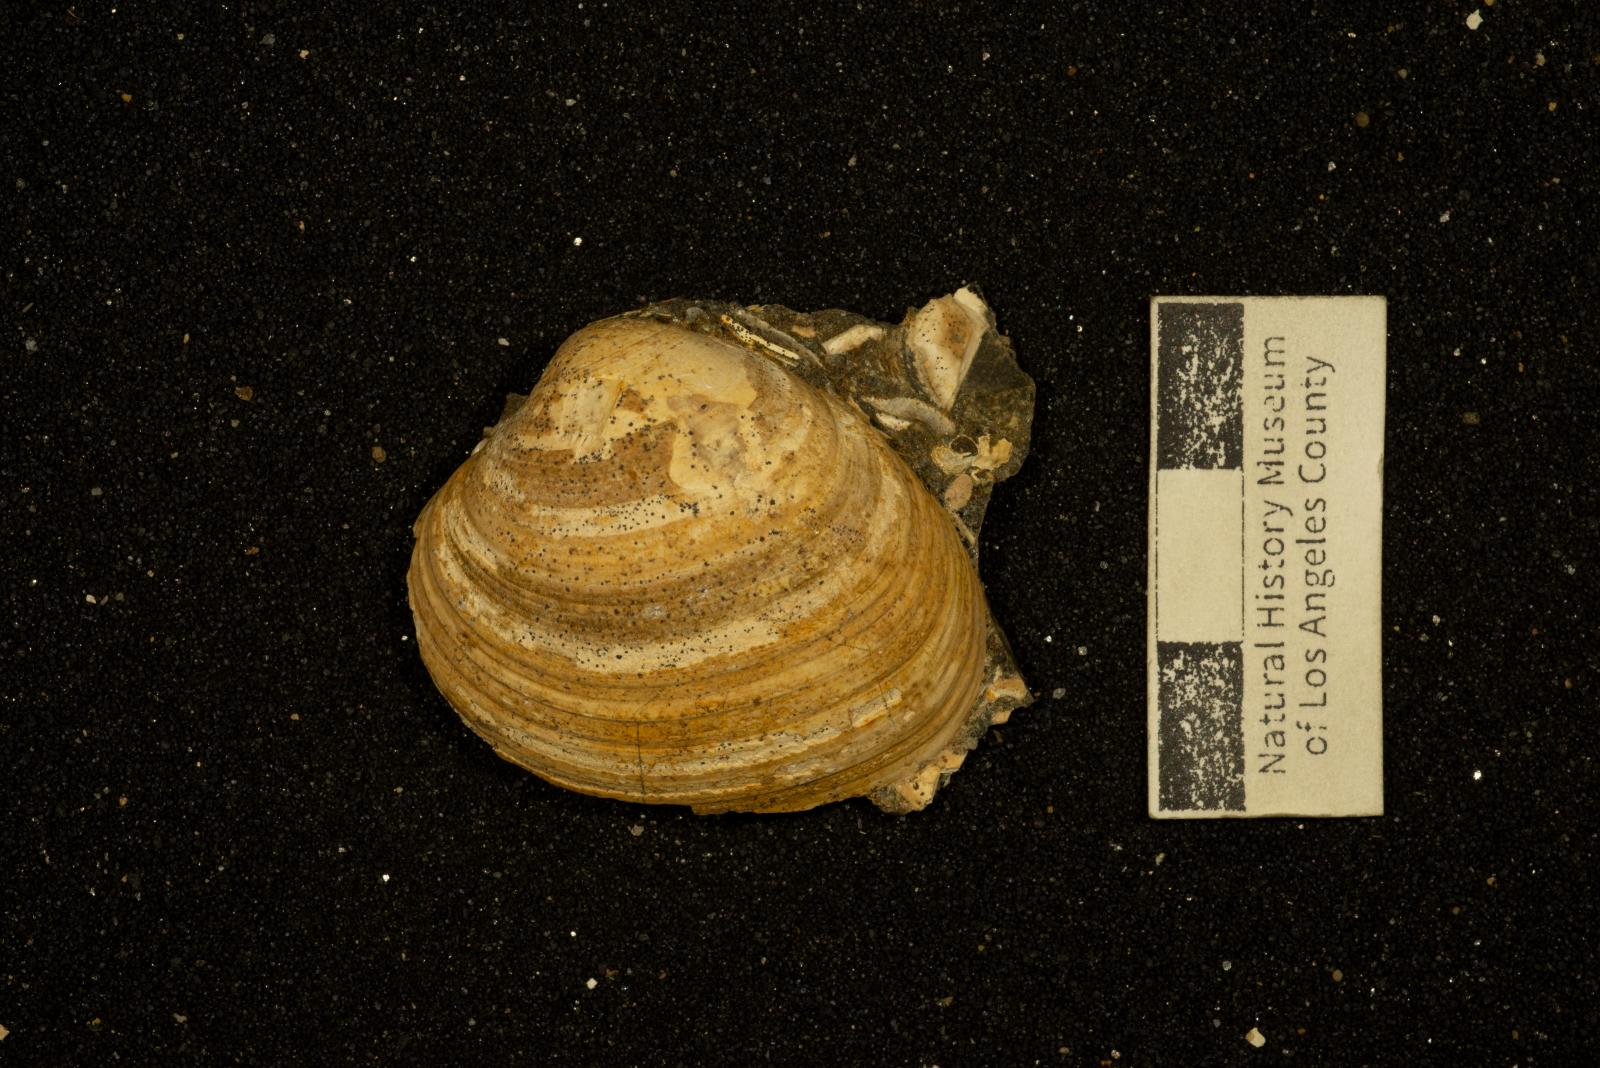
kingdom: Animalia
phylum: Mollusca
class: Bivalvia
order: Venerida
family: Veneridae
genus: Calva
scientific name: Calva Trigonocallista taffi
